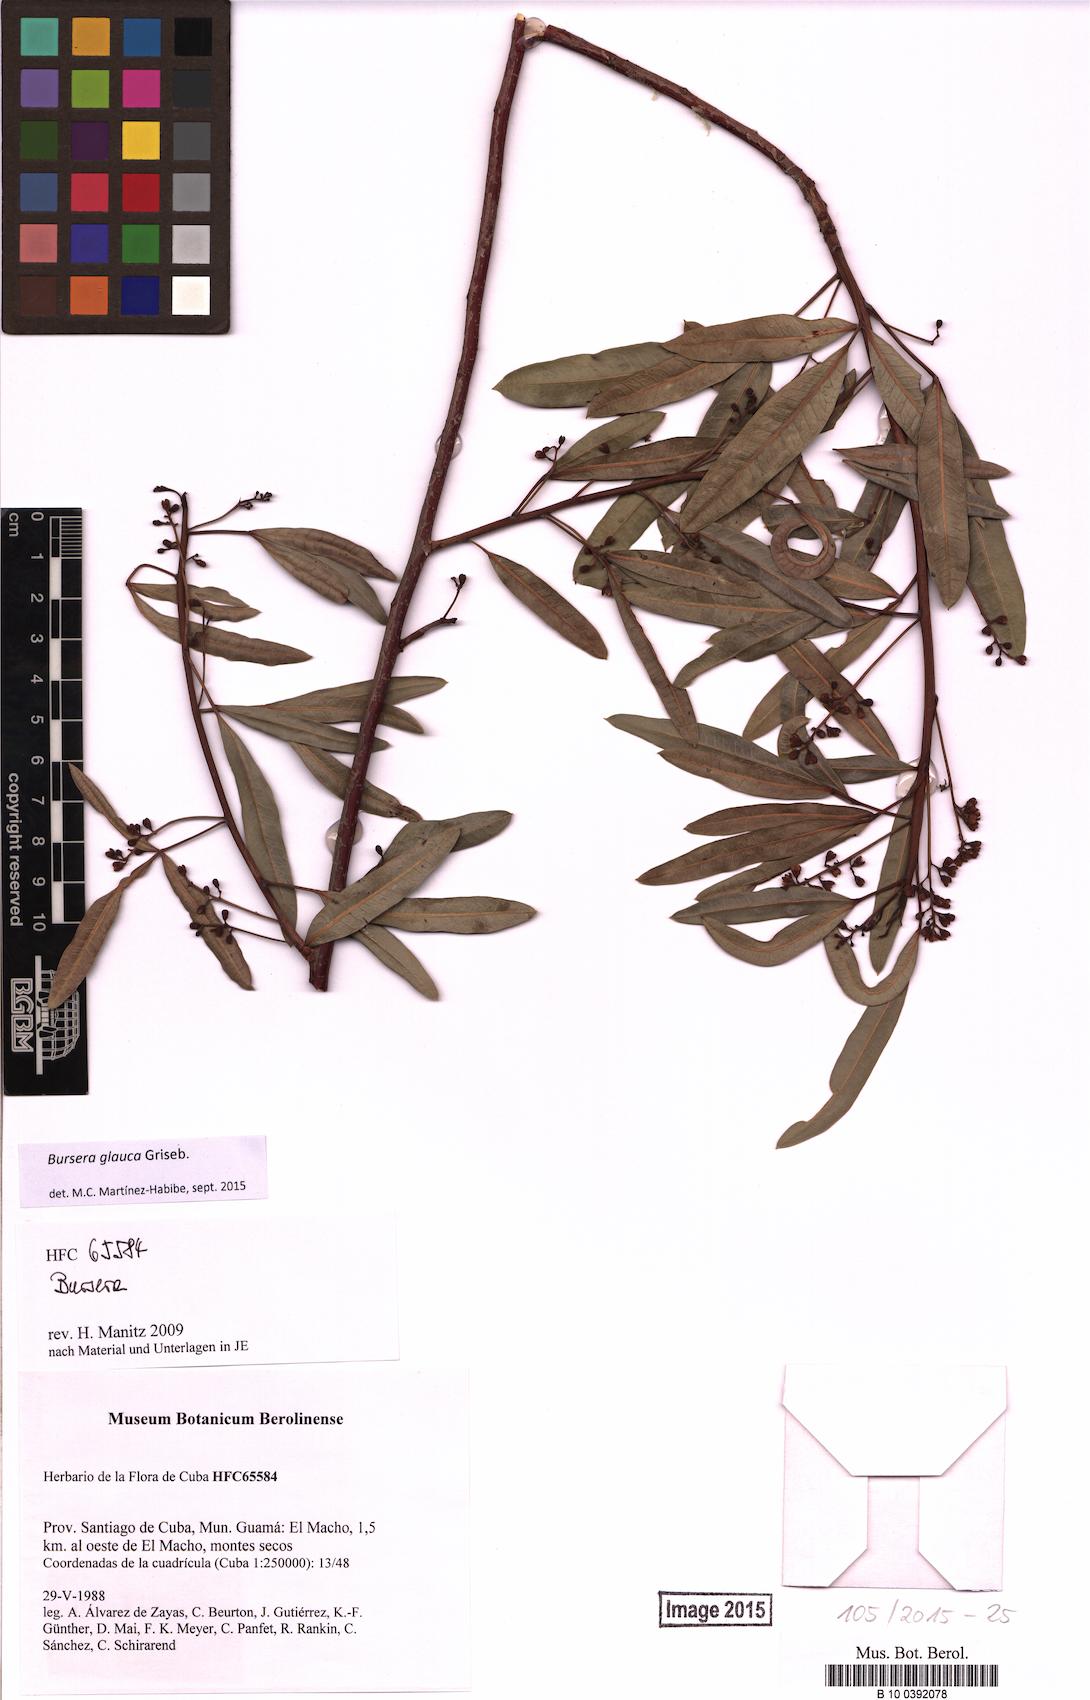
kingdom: Plantae
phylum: Tracheophyta
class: Magnoliopsida
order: Sapindales
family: Burseraceae
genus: Bursera
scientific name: Bursera glauca
